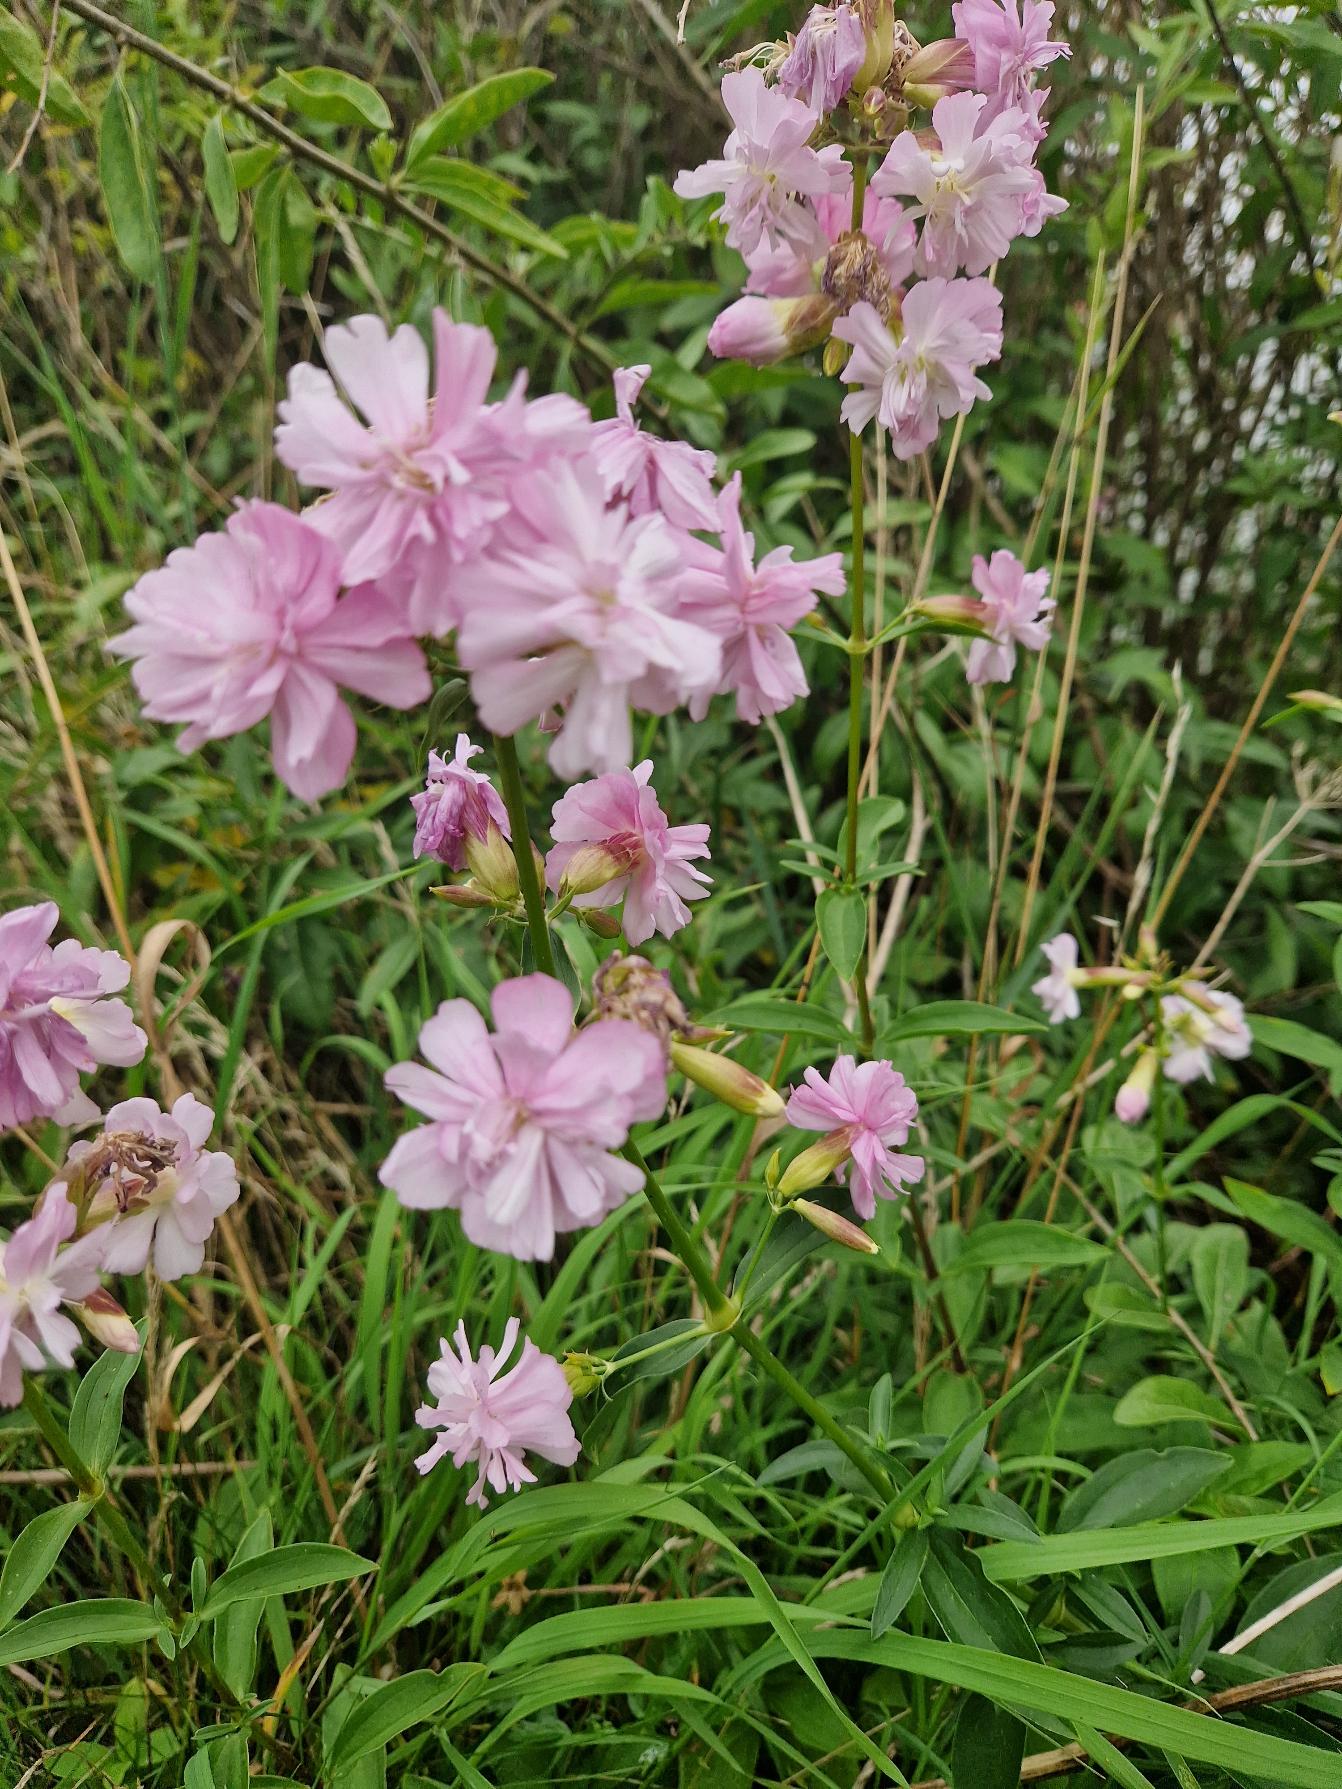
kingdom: Plantae
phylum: Tracheophyta
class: Magnoliopsida
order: Caryophyllales
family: Caryophyllaceae
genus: Saponaria
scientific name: Saponaria officinalis
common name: Sæbeurt
